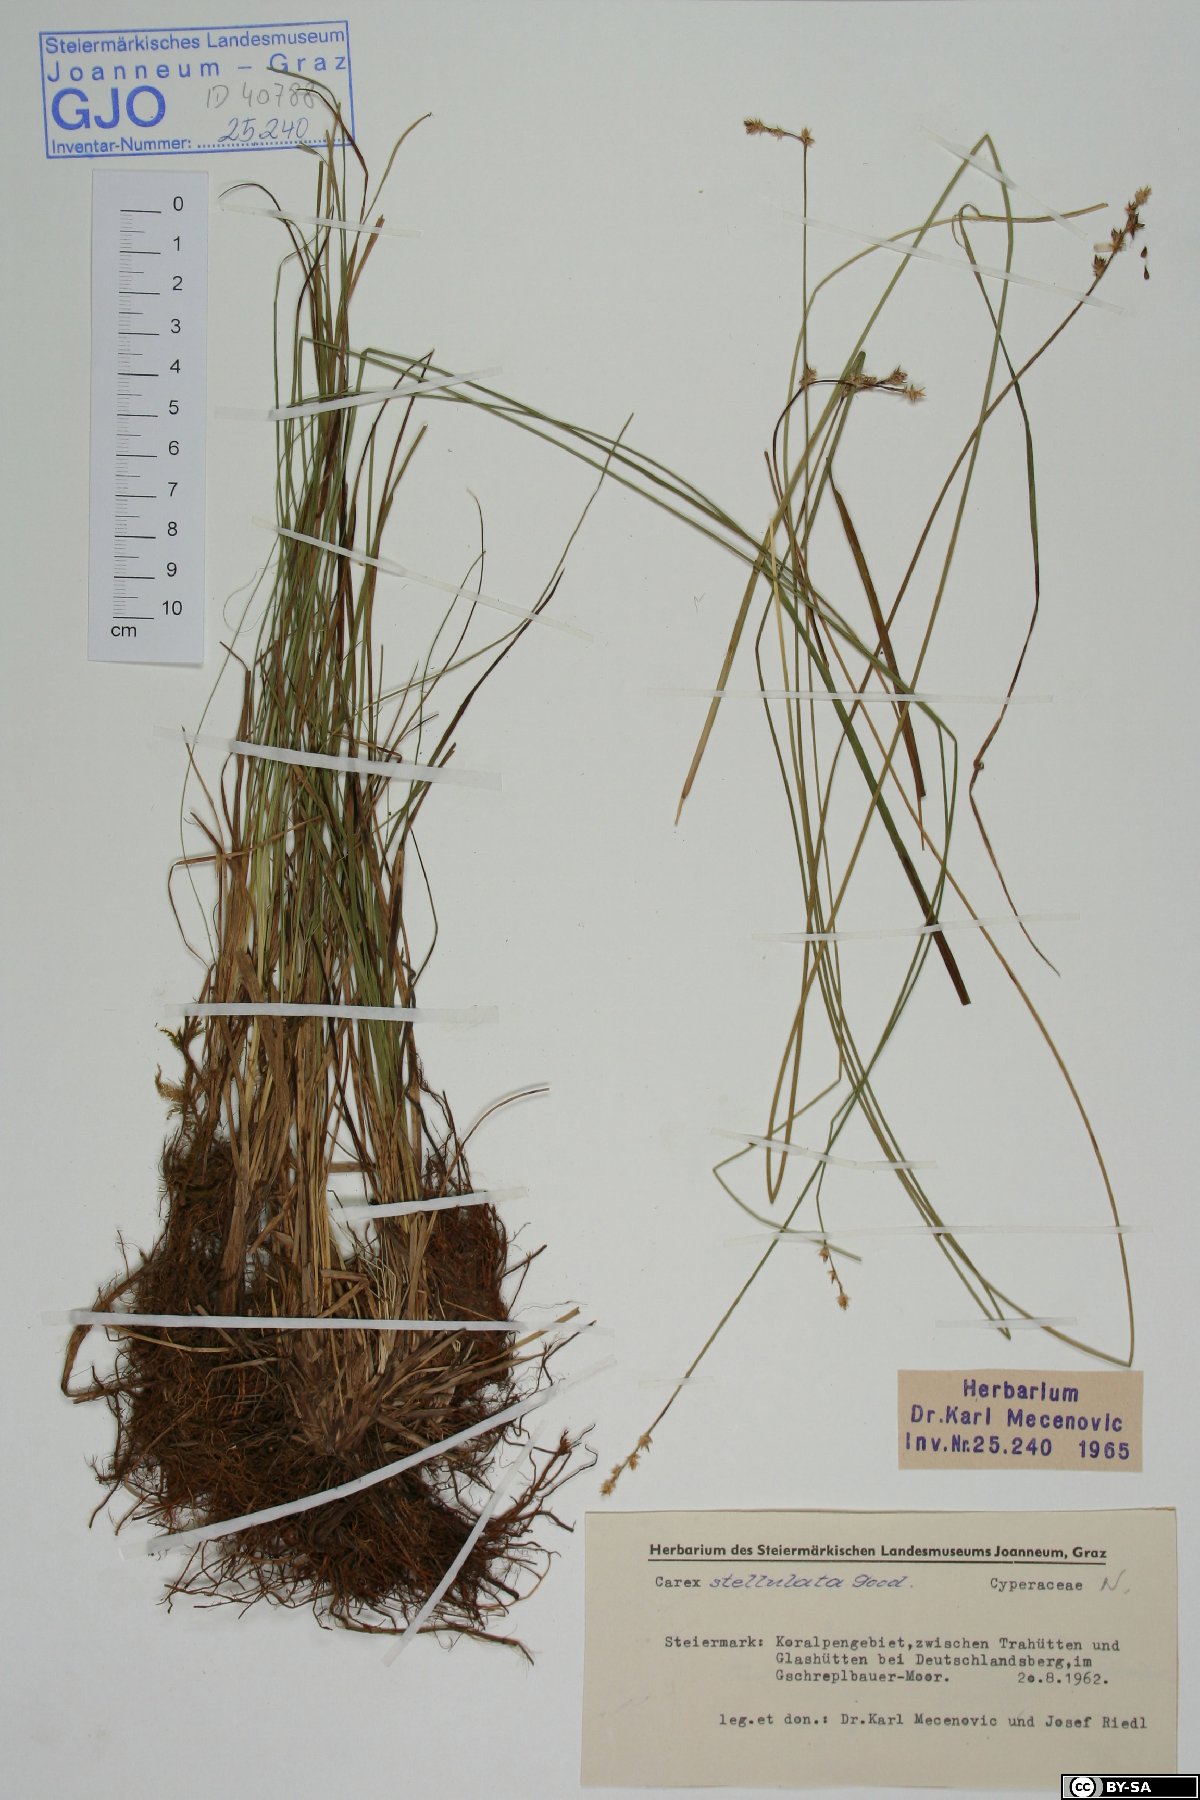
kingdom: Plantae
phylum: Tracheophyta
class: Liliopsida
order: Poales
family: Cyperaceae
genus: Carex
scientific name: Carex echinata
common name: Star sedge
